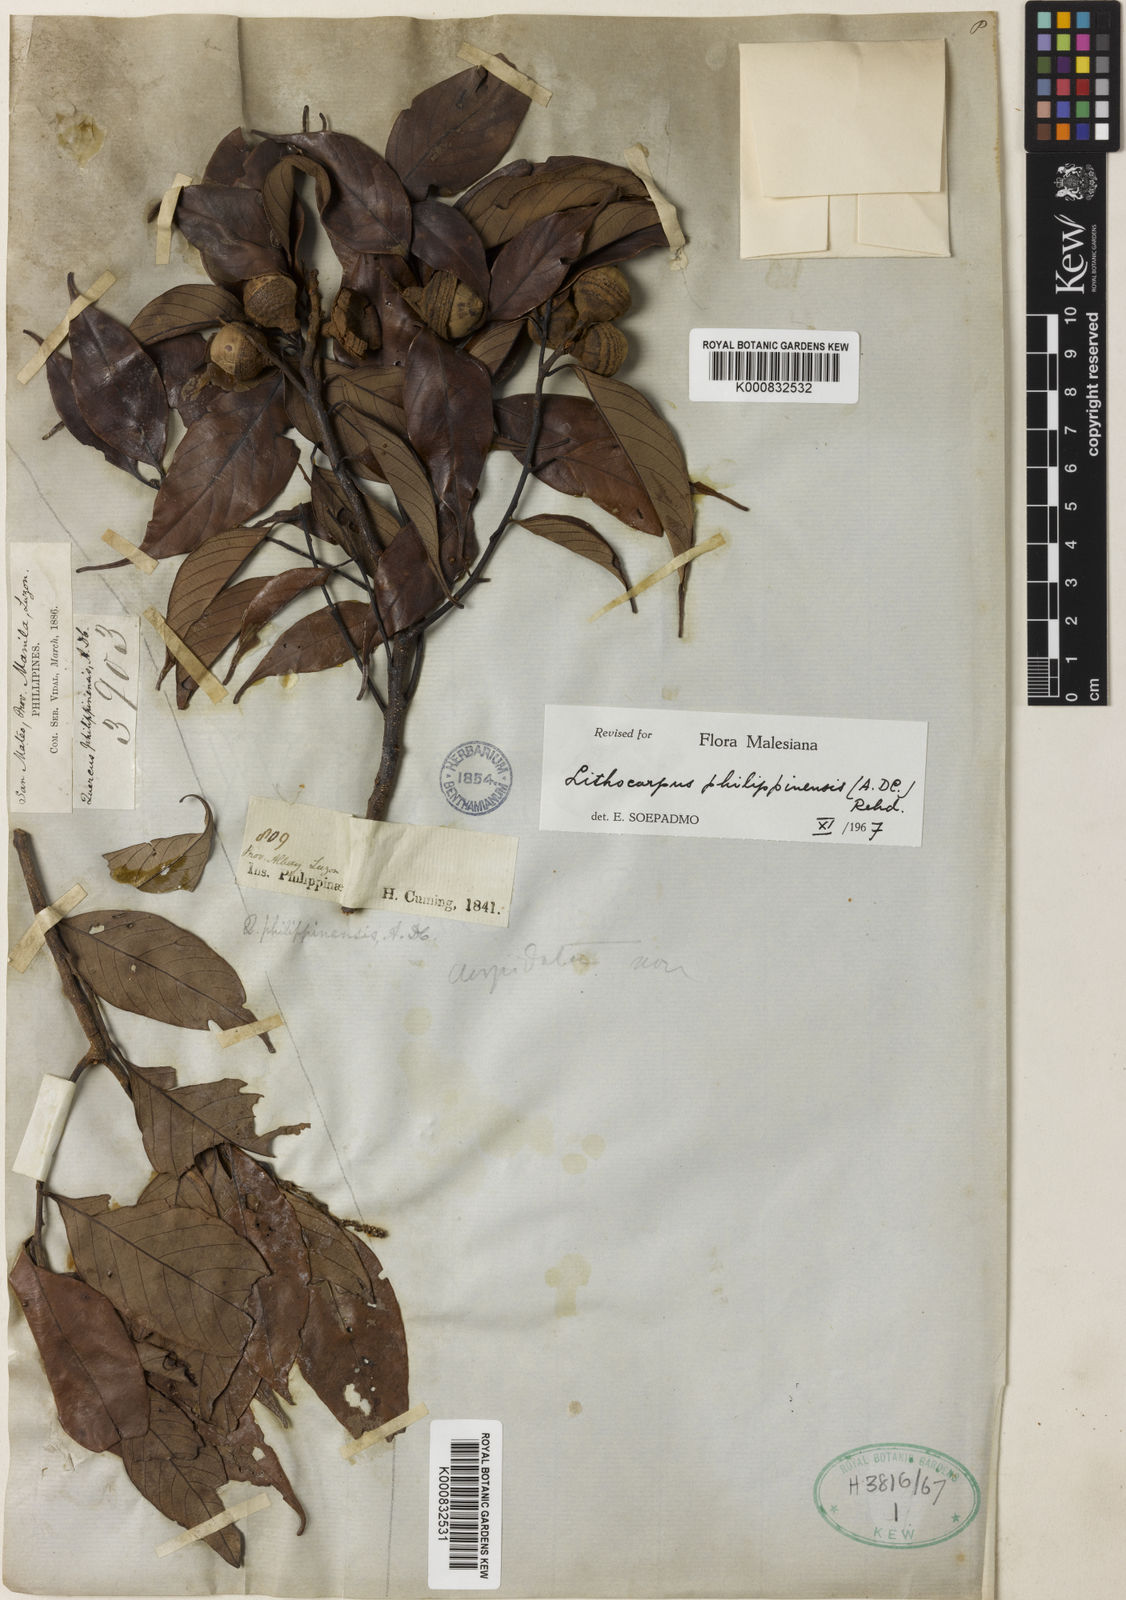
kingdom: Plantae
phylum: Tracheophyta
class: Magnoliopsida
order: Fagales
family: Fagaceae
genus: Lithocarpus
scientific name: Lithocarpus philippinensis
